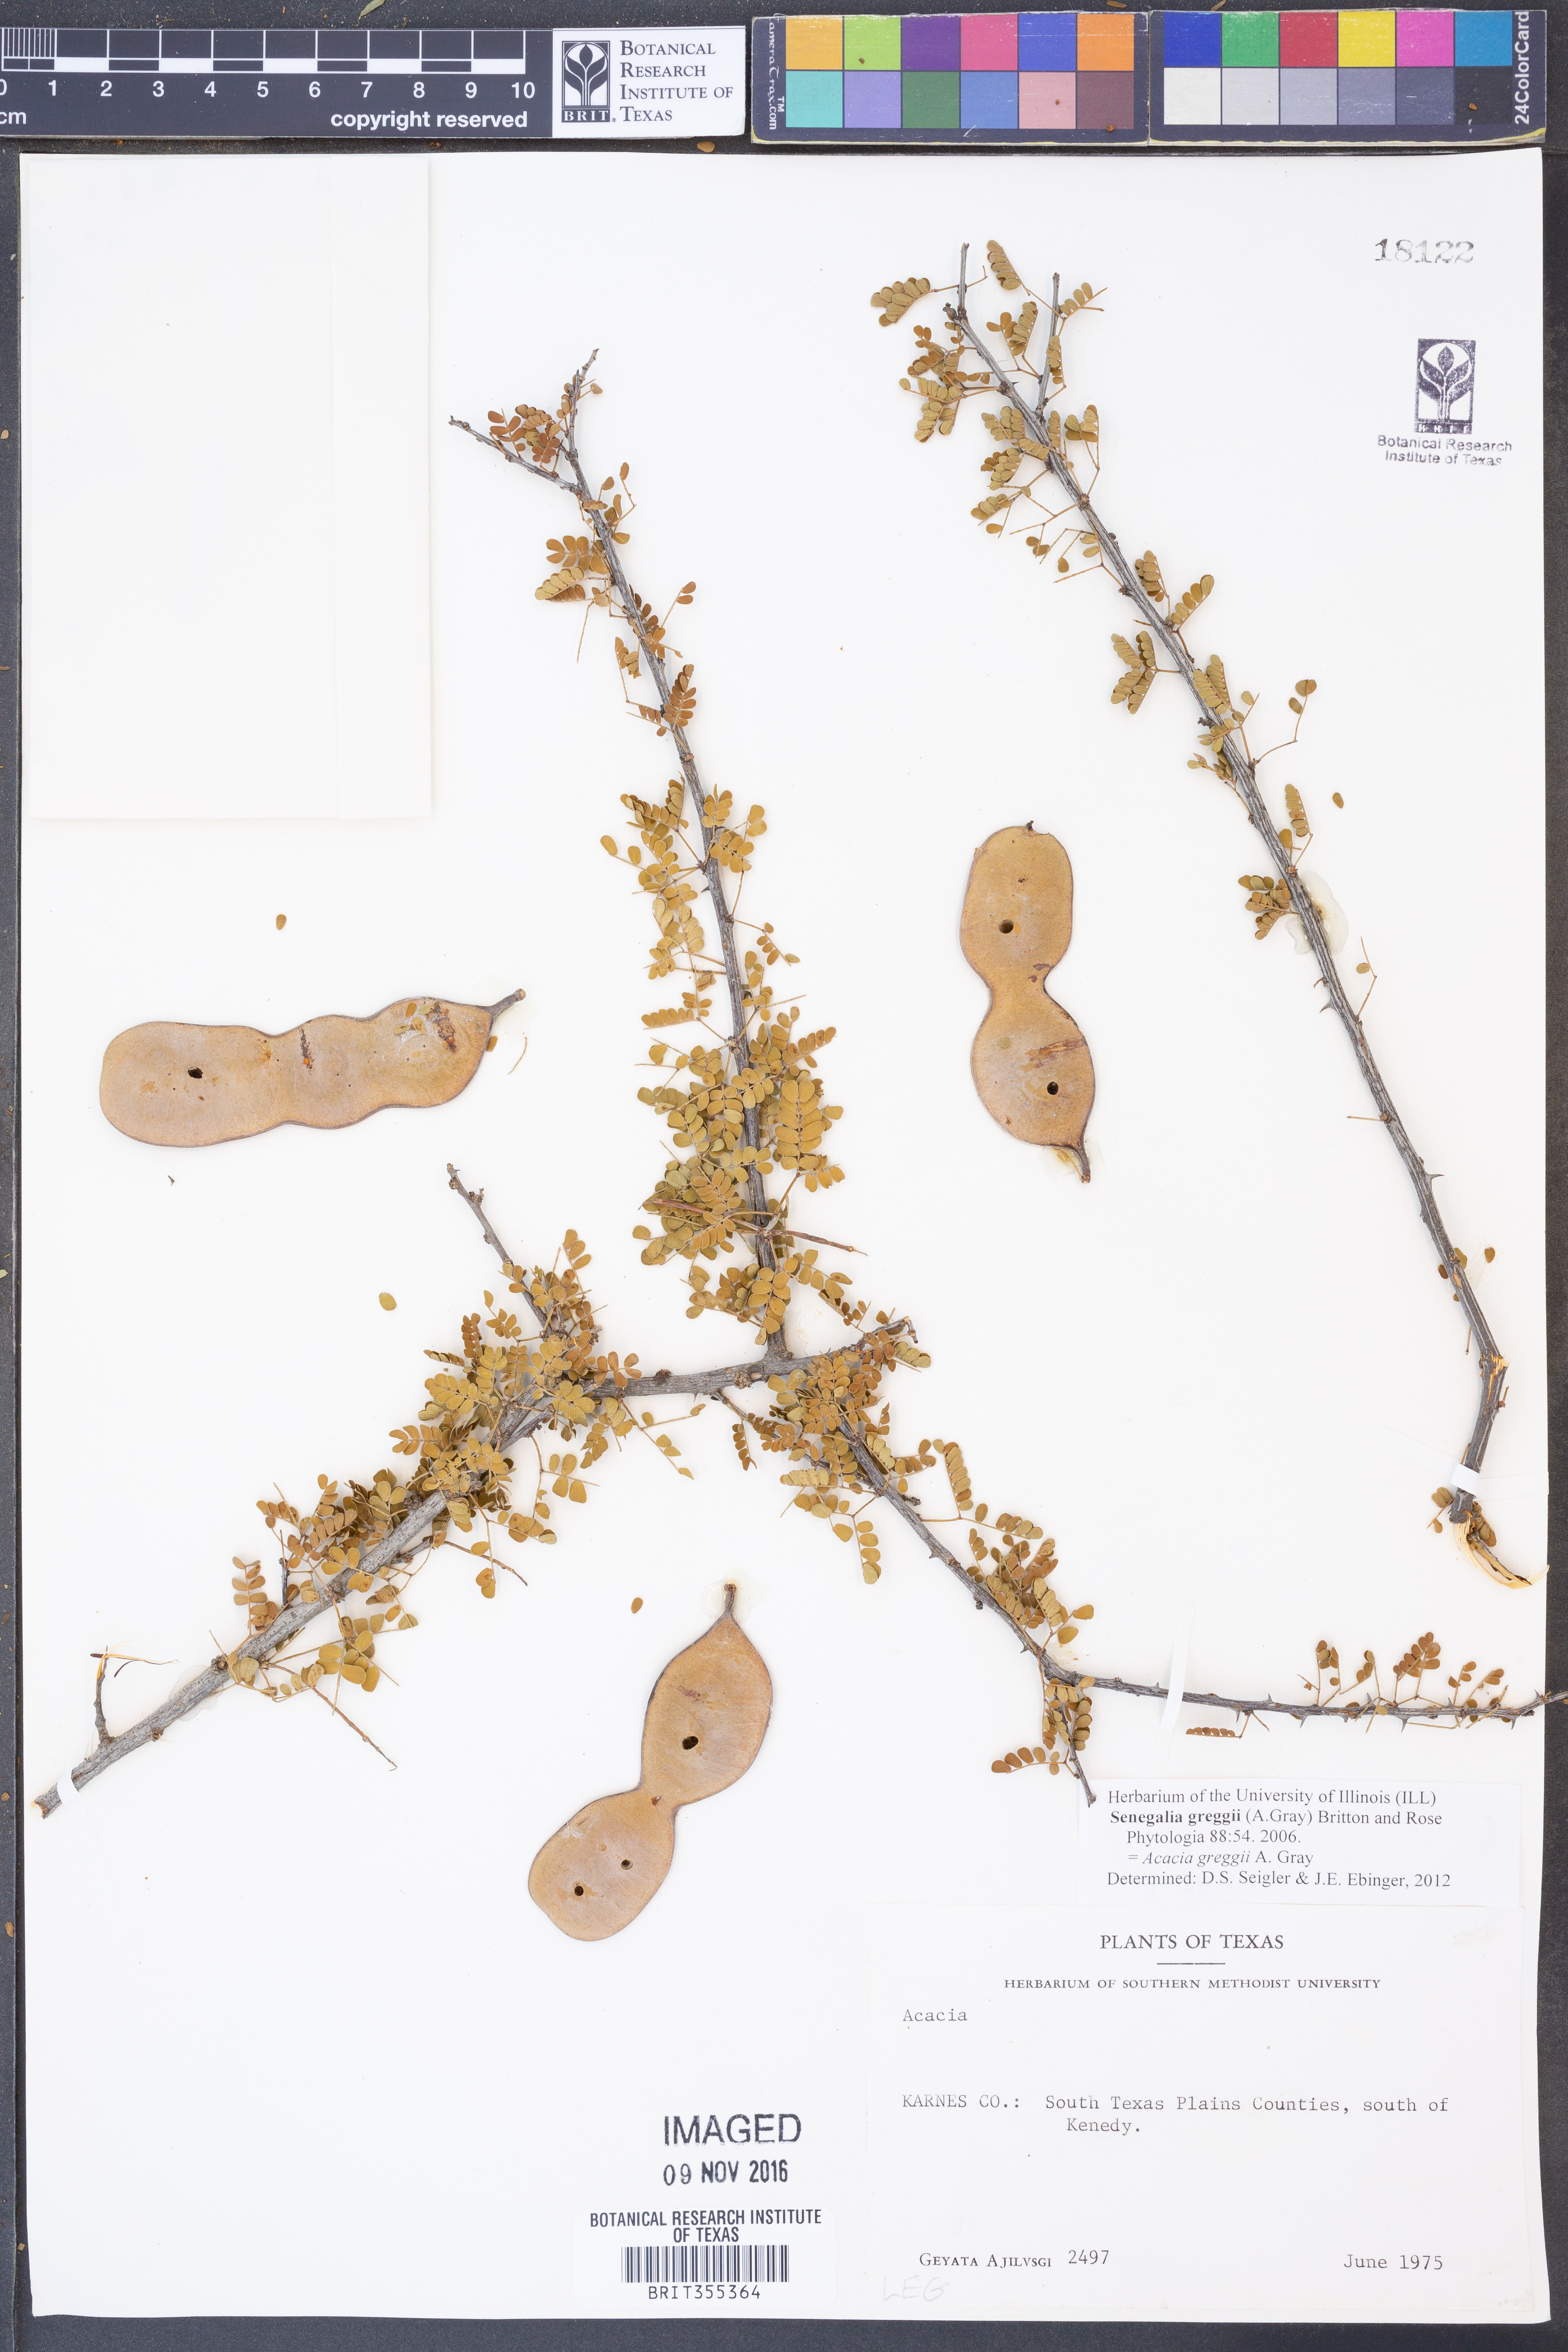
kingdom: Plantae
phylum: Tracheophyta
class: Magnoliopsida
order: Fabales
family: Fabaceae
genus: Senegalia
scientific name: Senegalia greggii
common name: Texas-mimosa
